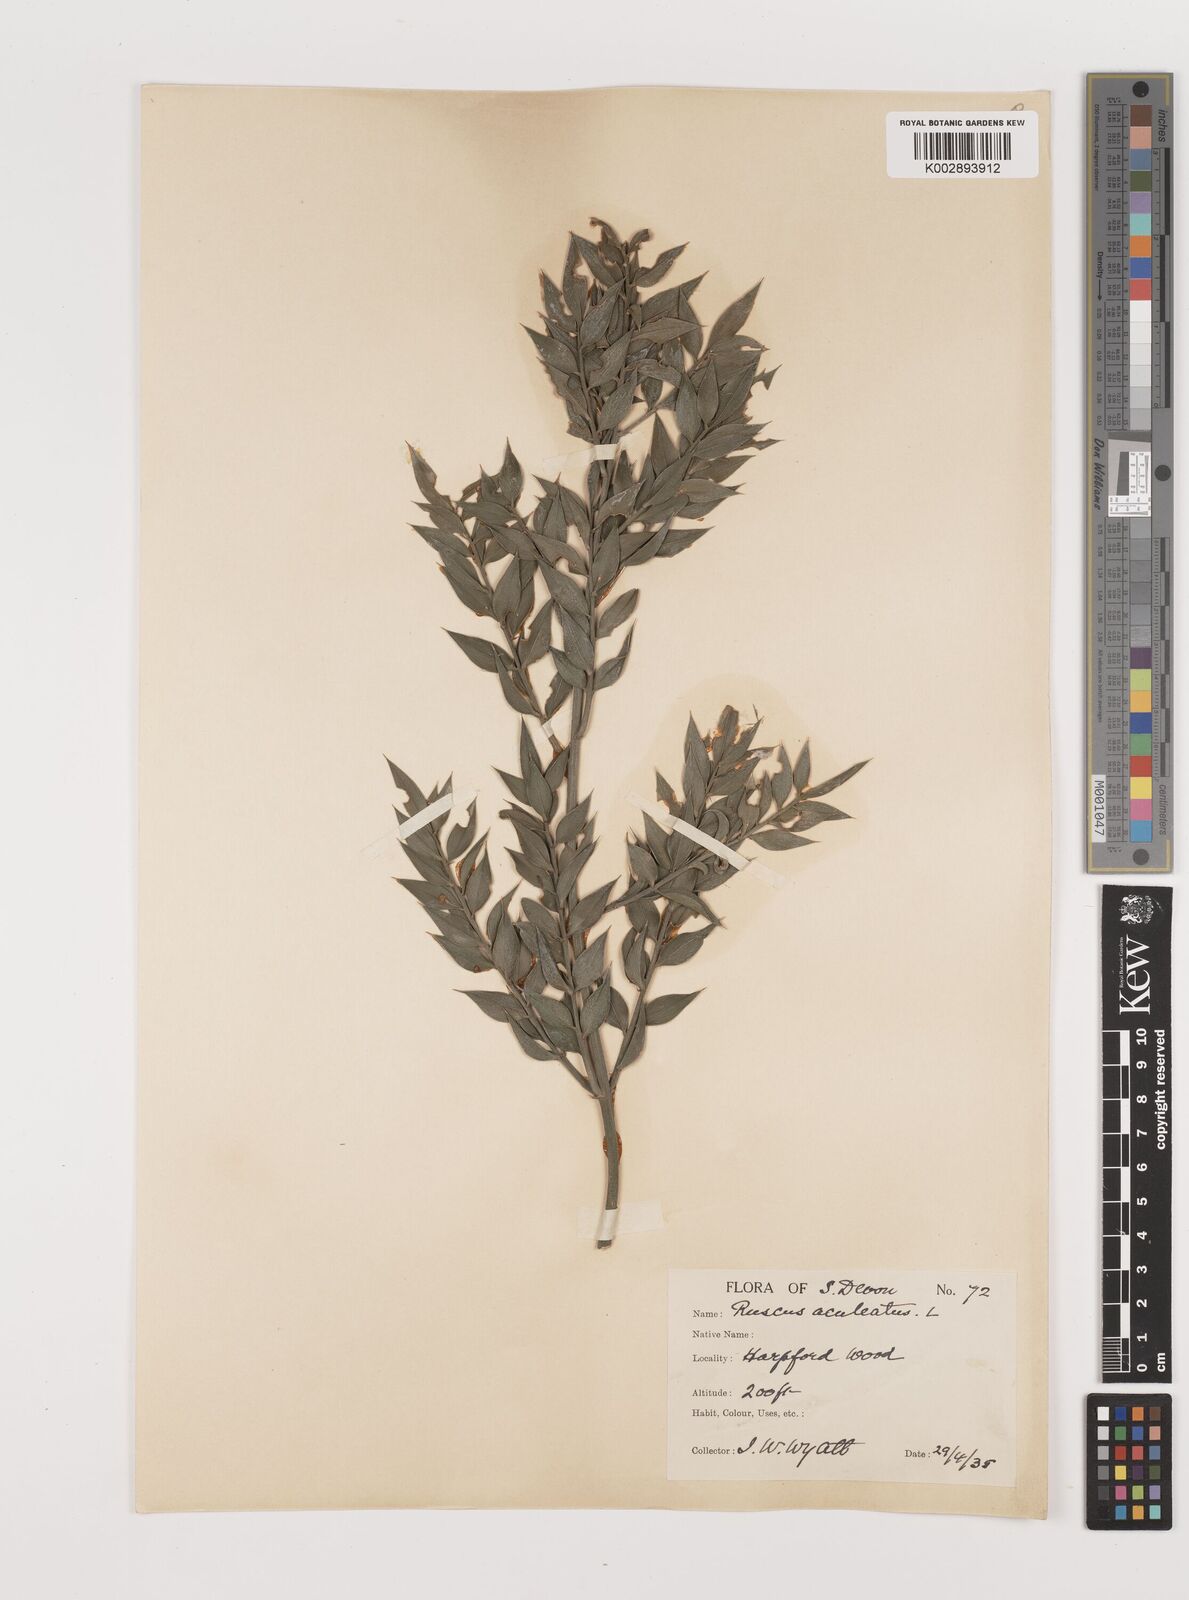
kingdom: Plantae
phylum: Tracheophyta
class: Liliopsida
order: Asparagales
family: Asparagaceae
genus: Ruscus
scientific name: Ruscus aculeatus
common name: Butcher's-broom
